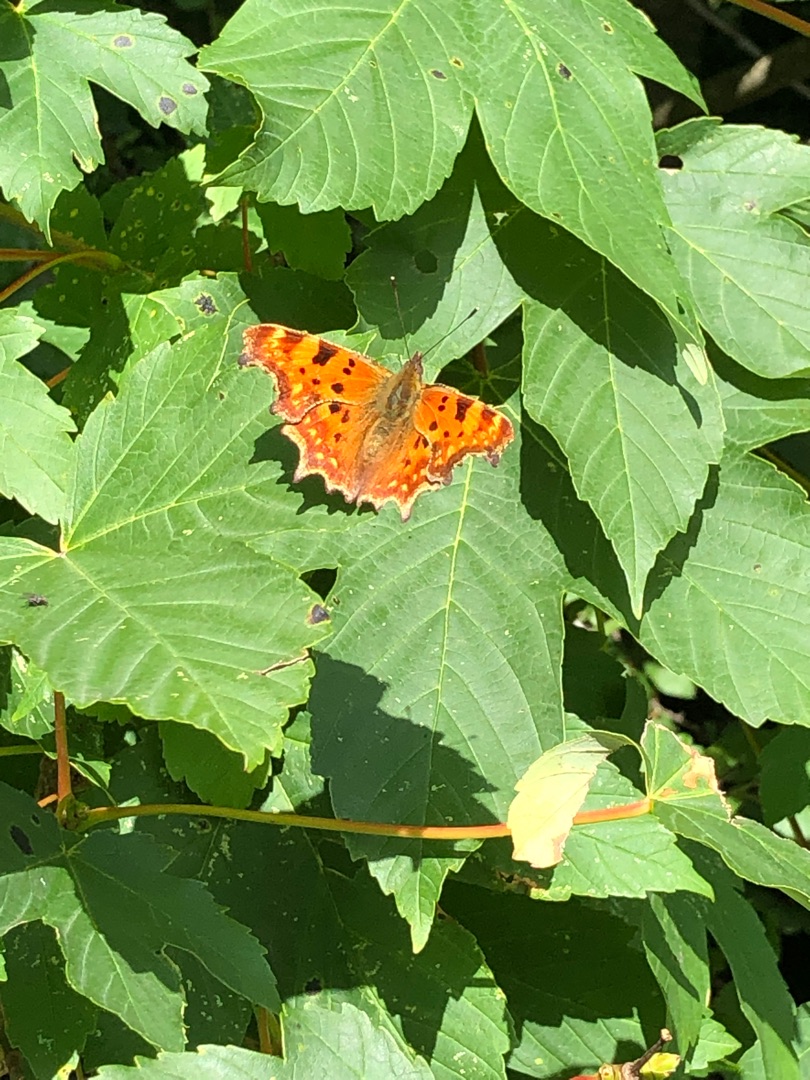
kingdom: Animalia
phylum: Arthropoda
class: Insecta
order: Lepidoptera
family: Nymphalidae
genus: Polygonia
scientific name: Polygonia c-album
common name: Det hvide C
